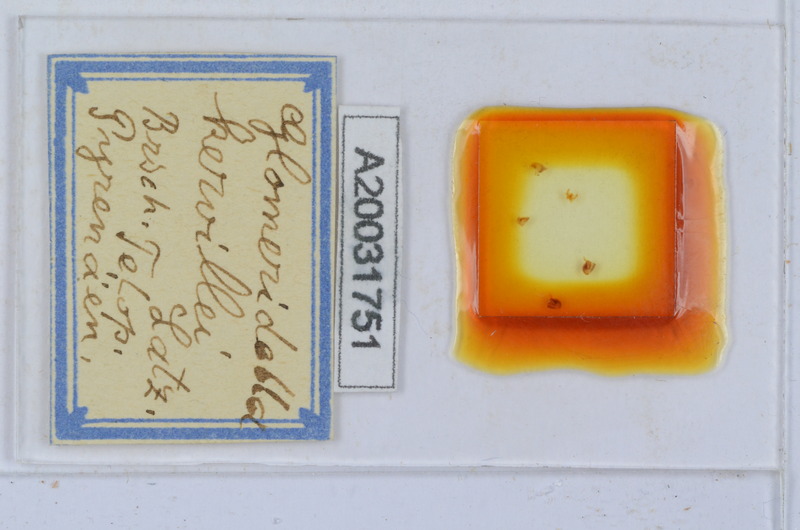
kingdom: Animalia
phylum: Arthropoda
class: Diplopoda
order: Glomerida
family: Glomeridellidae
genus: Glomeridella
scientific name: Glomeridella kervillei
